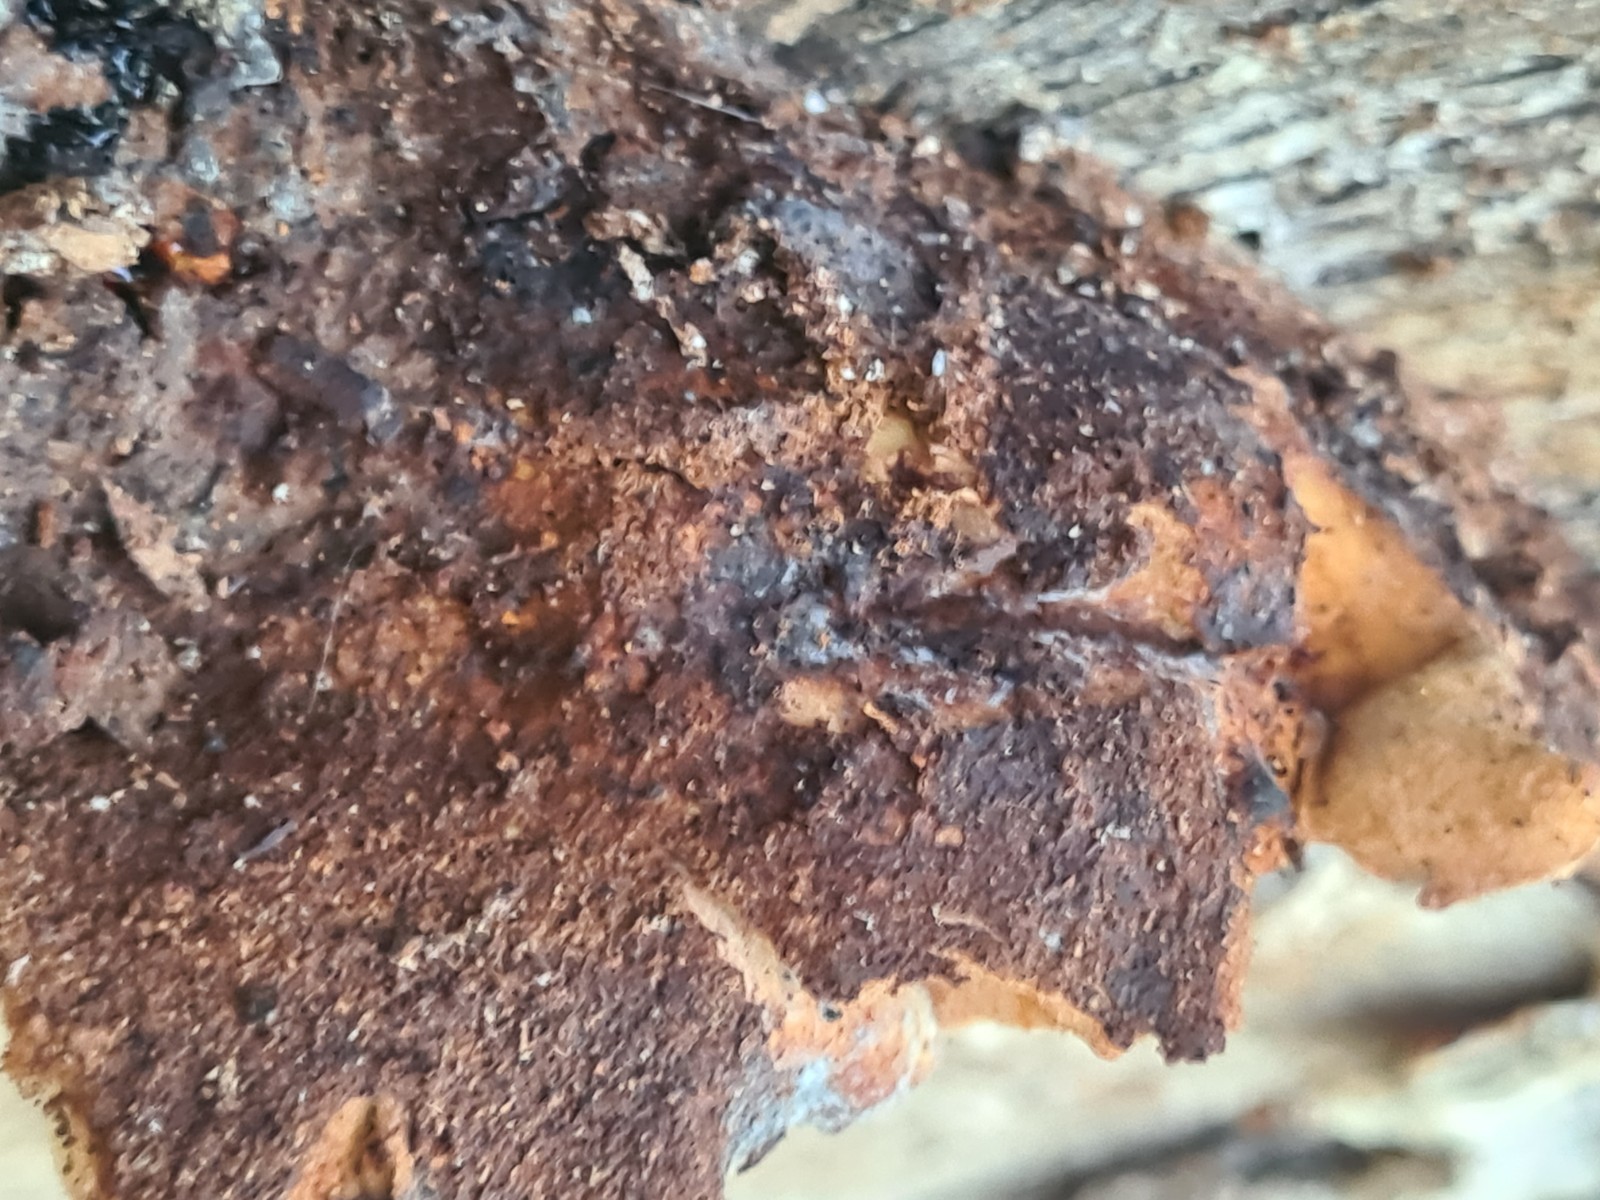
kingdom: Fungi
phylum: Basidiomycota
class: Agaricomycetes
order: Polyporales
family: Fomitopsidaceae
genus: Buglossoporus
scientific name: Buglossoporus quercinus
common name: egetunge
